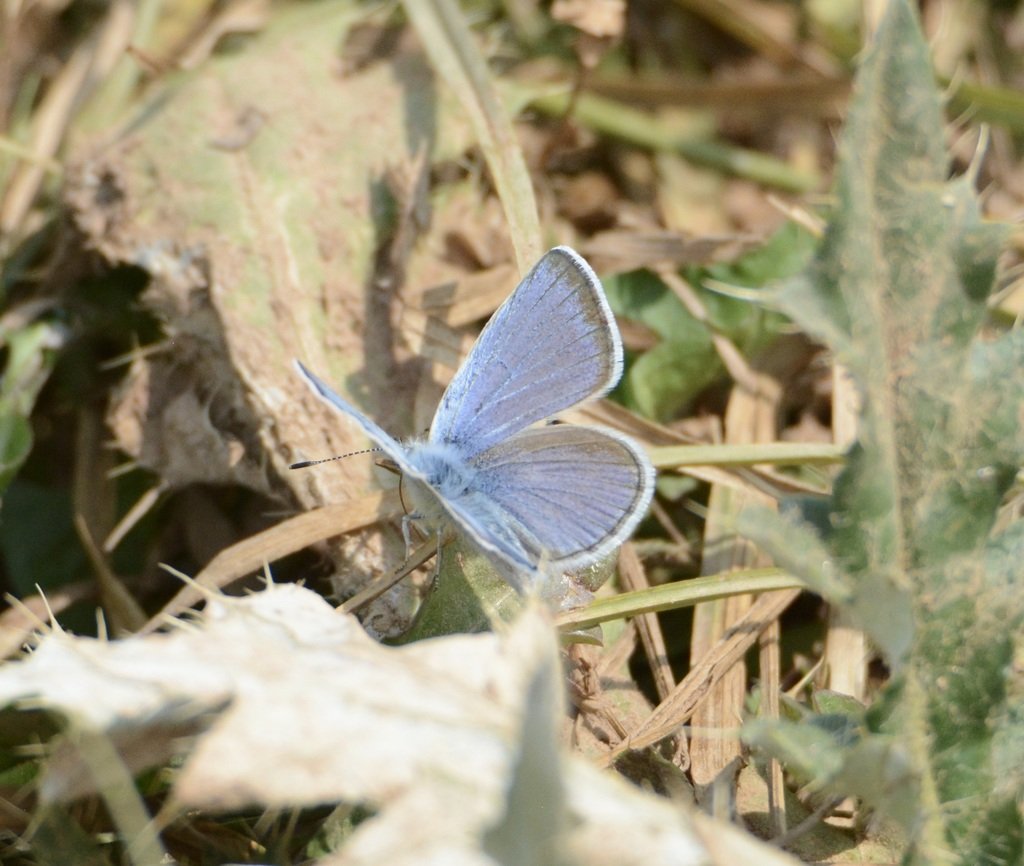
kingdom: Animalia
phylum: Arthropoda
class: Insecta
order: Lepidoptera
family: Lycaenidae
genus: Icaricia
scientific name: Icaricia icarioides
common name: Boisduval's Blue
